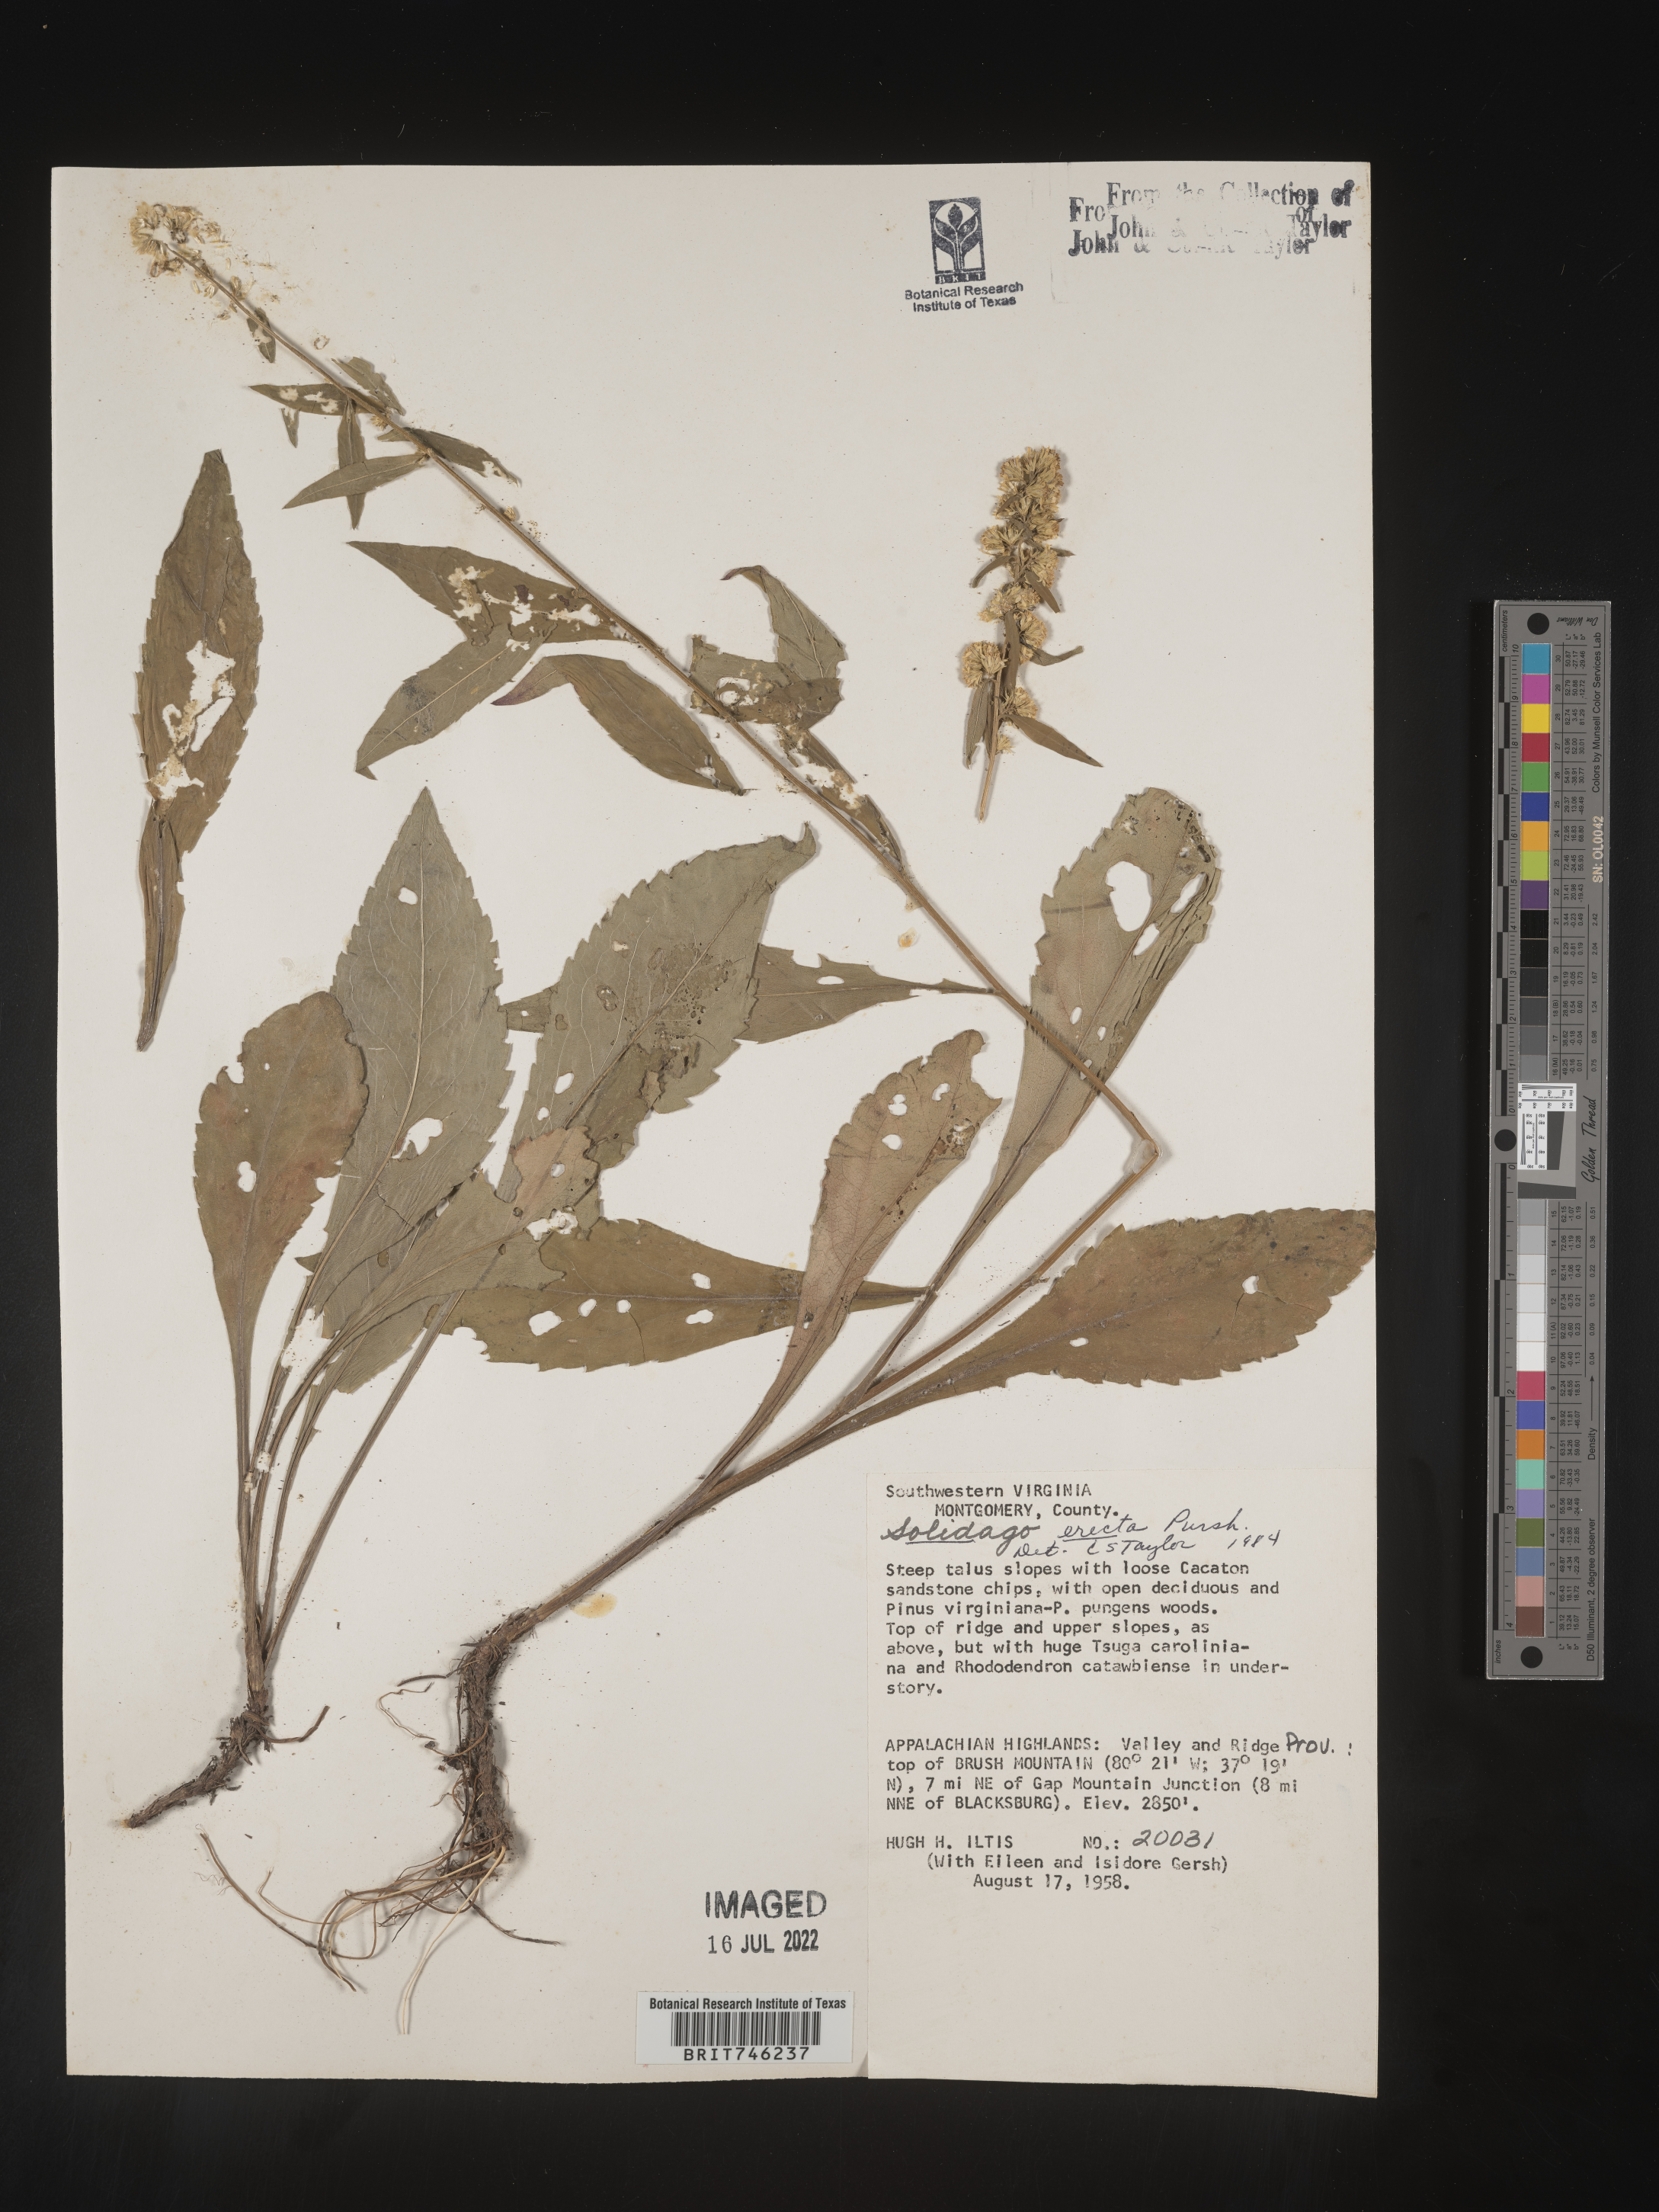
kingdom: Plantae
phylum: Tracheophyta
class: Magnoliopsida
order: Asterales
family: Asteraceae
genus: Solidago
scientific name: Solidago erecta
